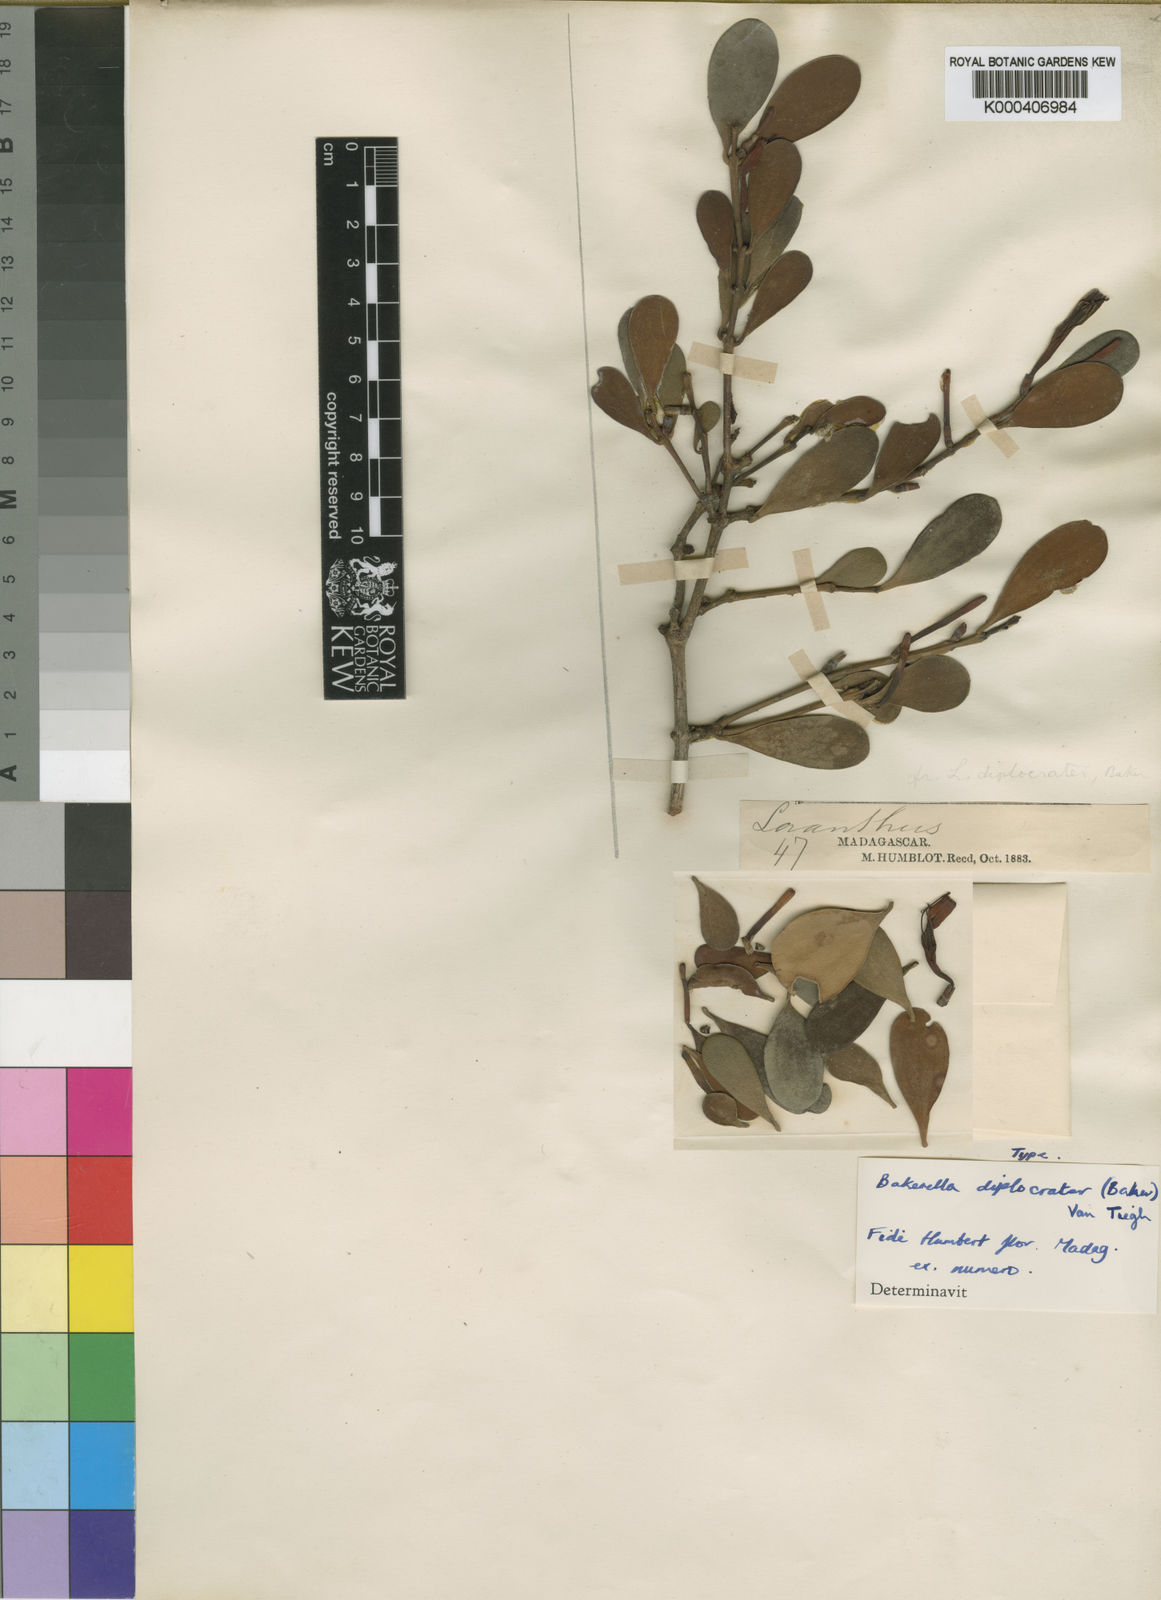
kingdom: Plantae
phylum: Tracheophyta
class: Magnoliopsida
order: Santalales
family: Loranthaceae
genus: Bakerella
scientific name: Bakerella diplocrater
